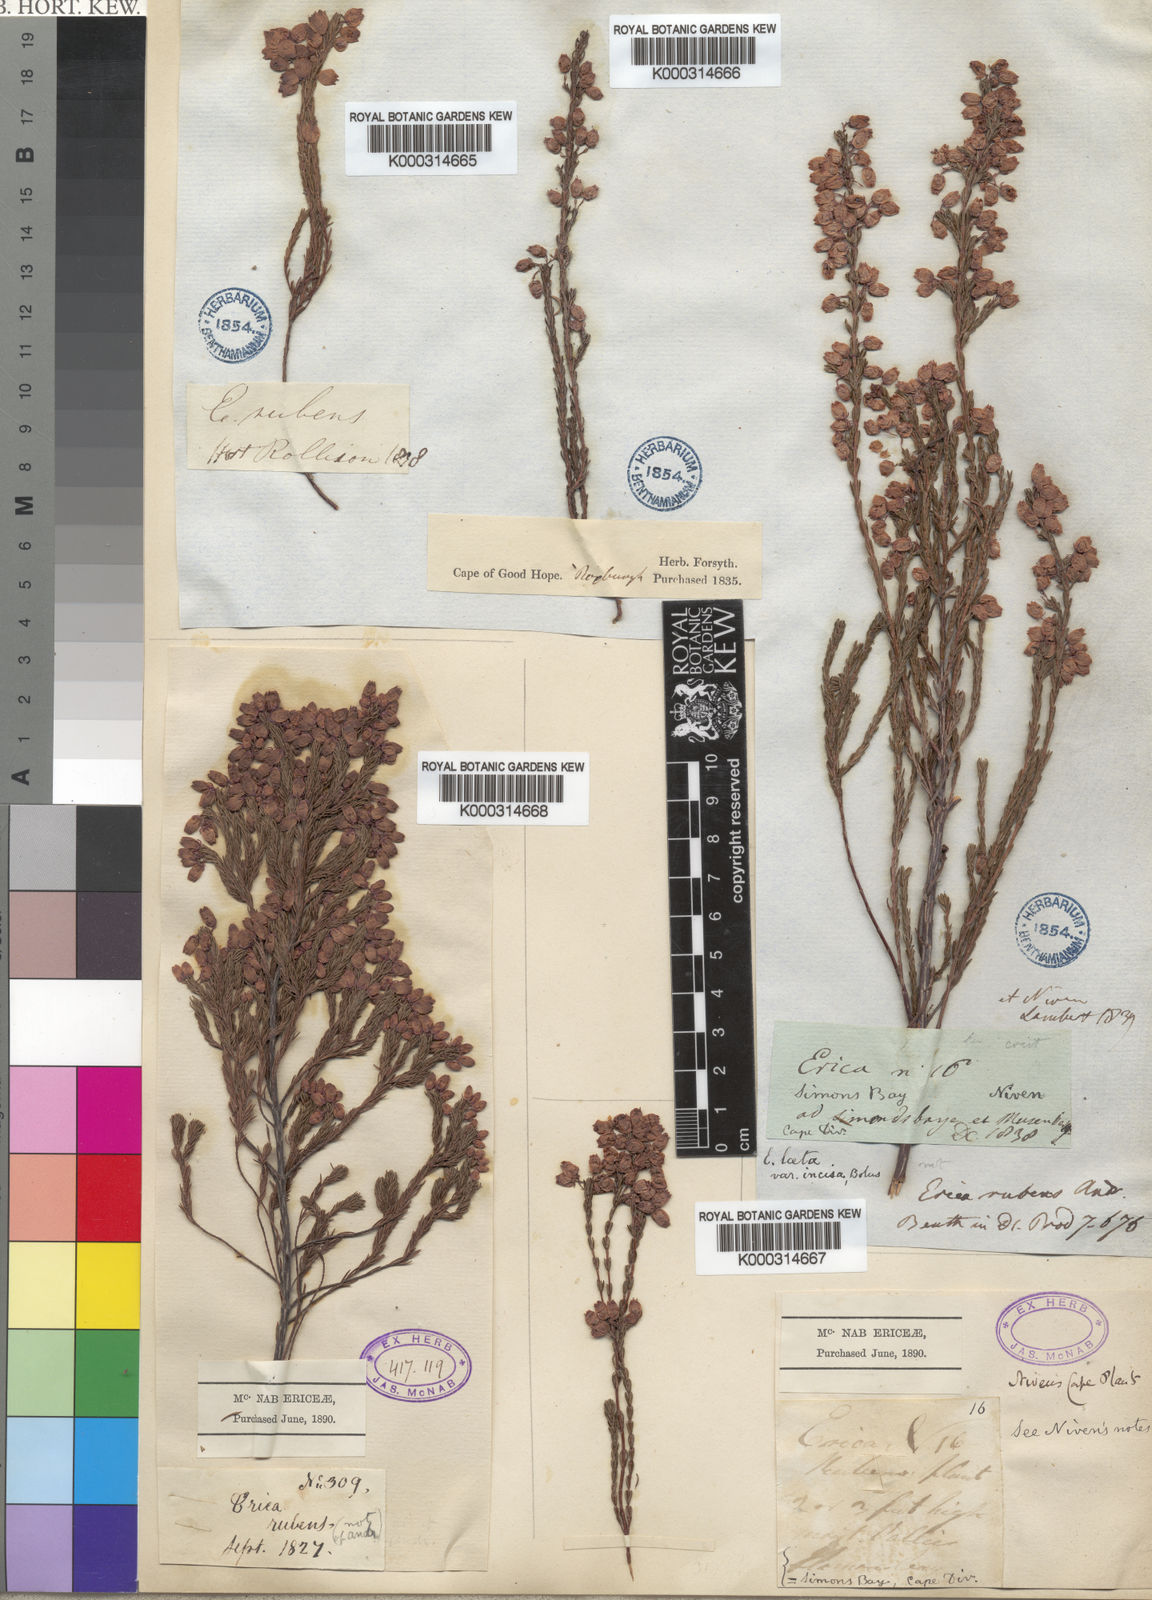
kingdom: Plantae
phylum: Tracheophyta
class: Magnoliopsida
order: Ericales
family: Ericaceae
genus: Erica
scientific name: Erica laeta
